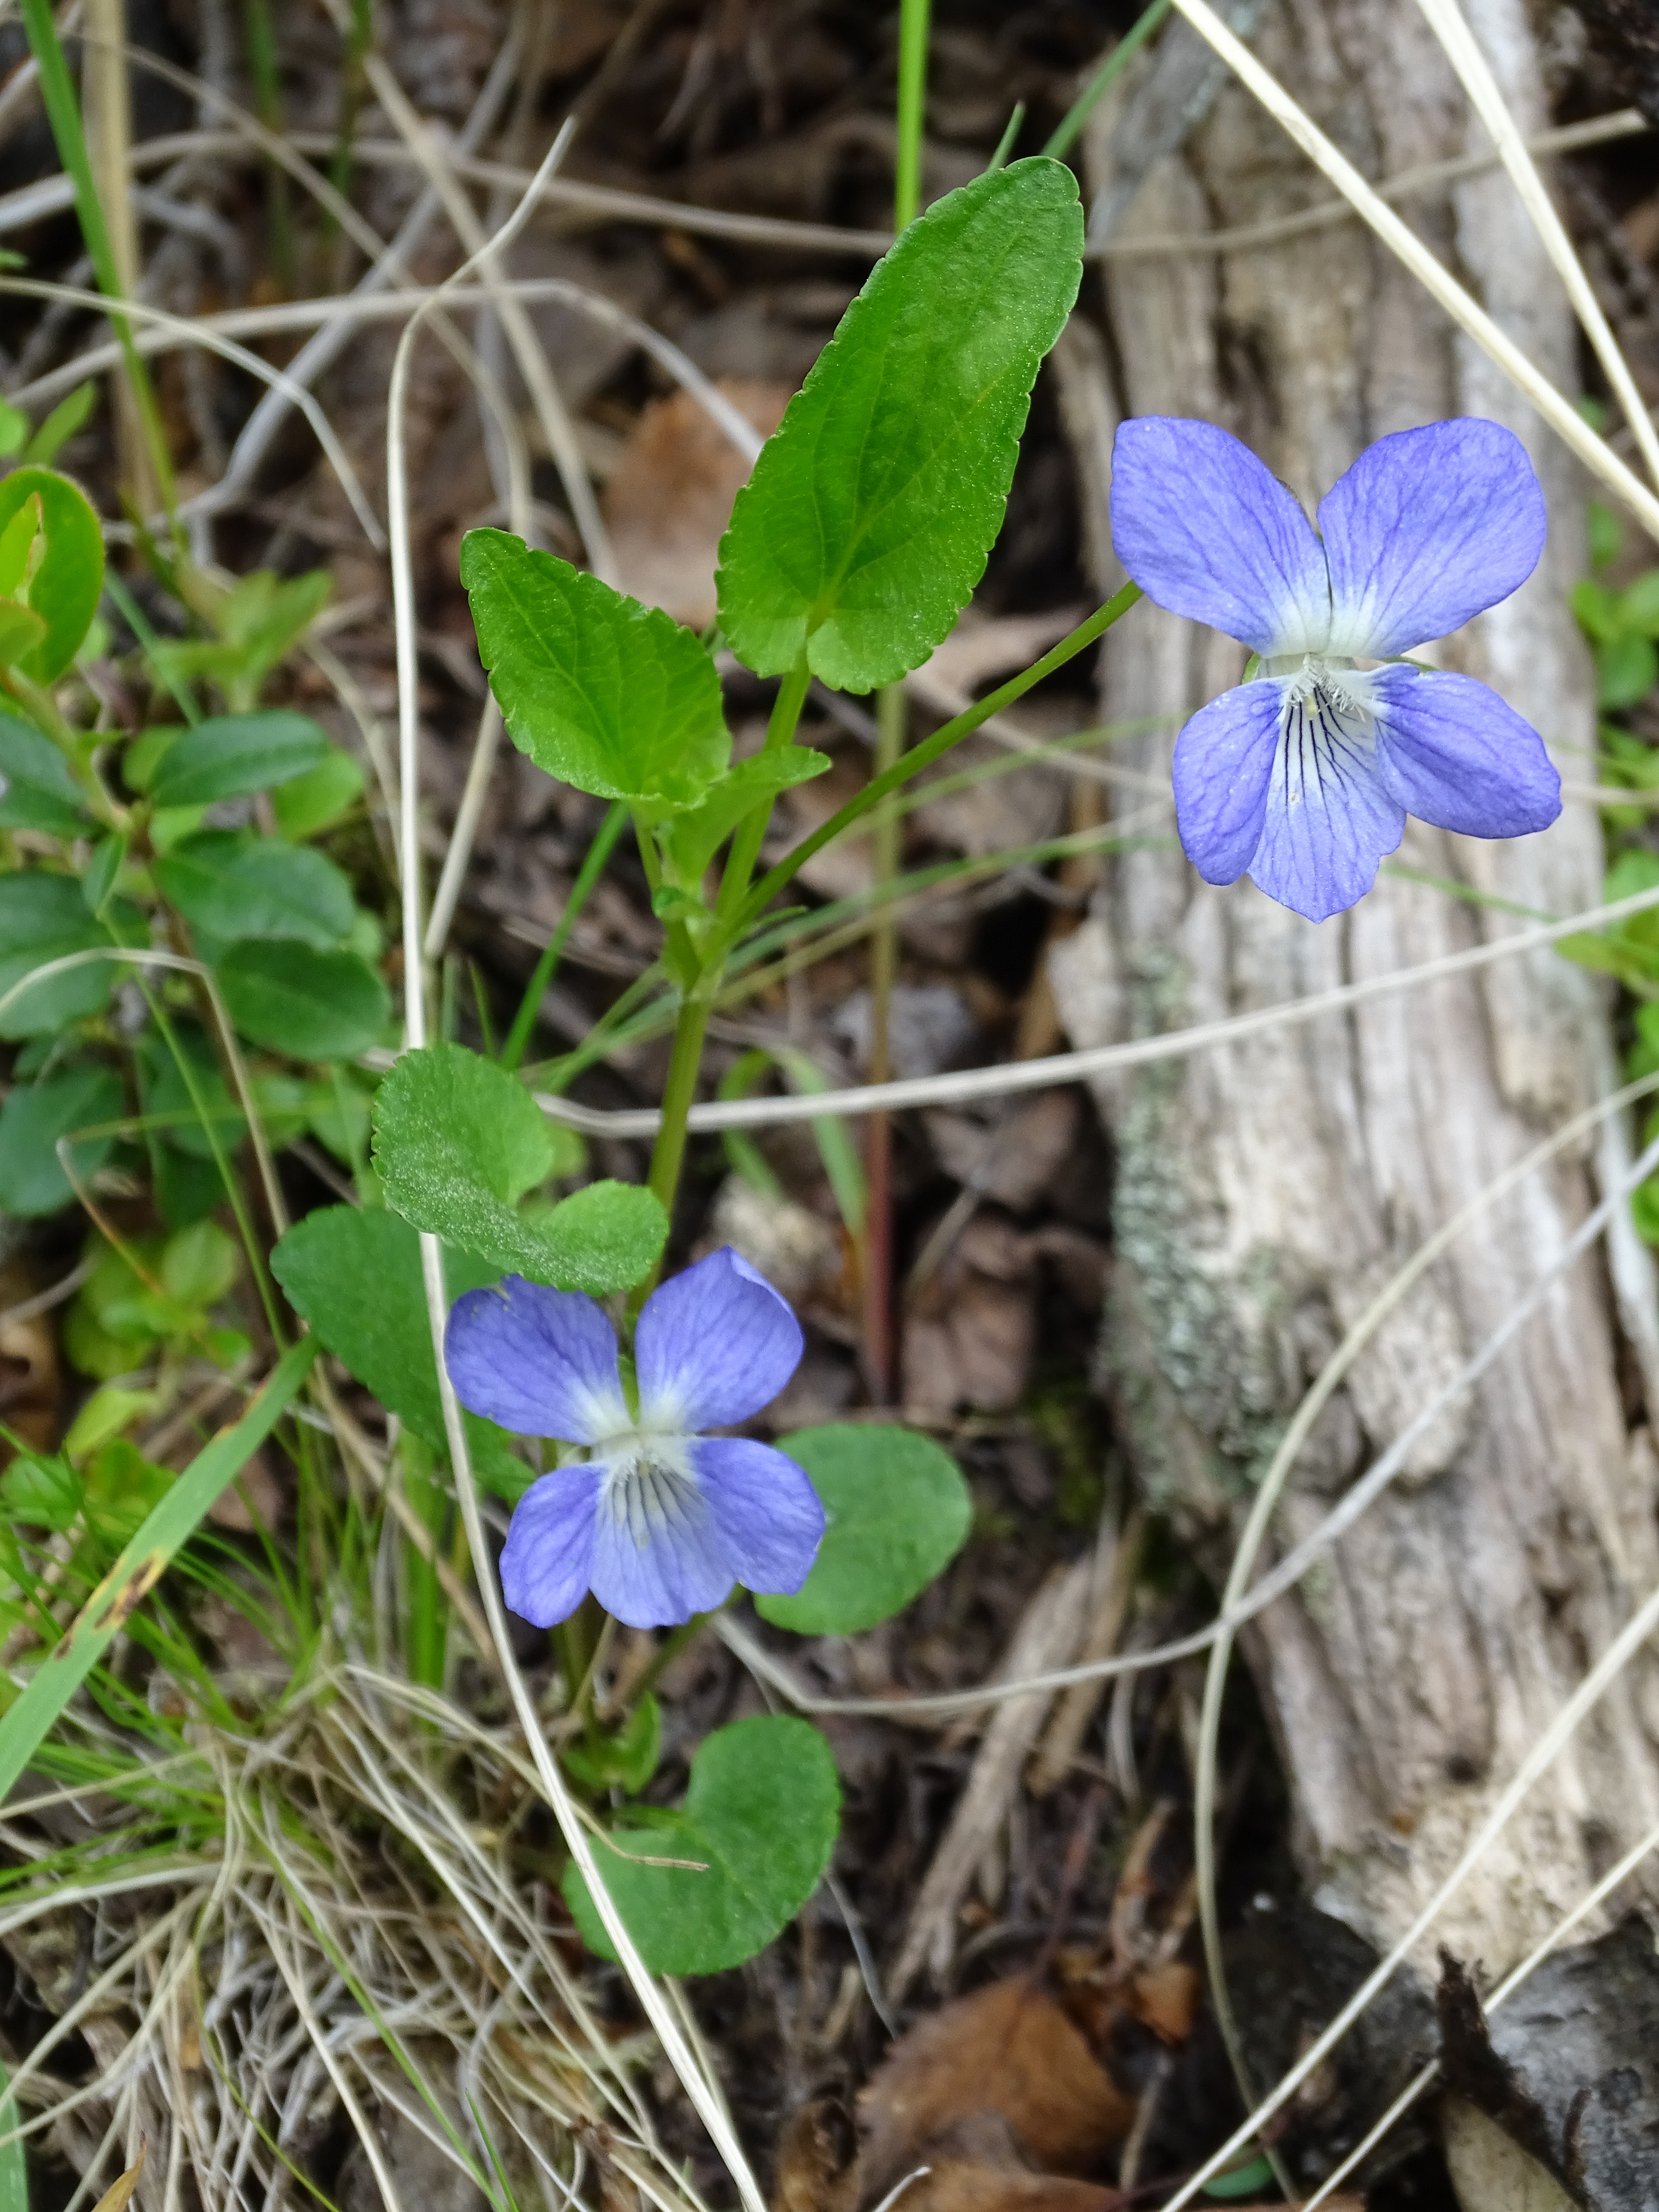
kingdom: Plantae
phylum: Tracheophyta
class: Magnoliopsida
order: Malpighiales
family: Violaceae
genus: Viola
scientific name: Viola ruppii
